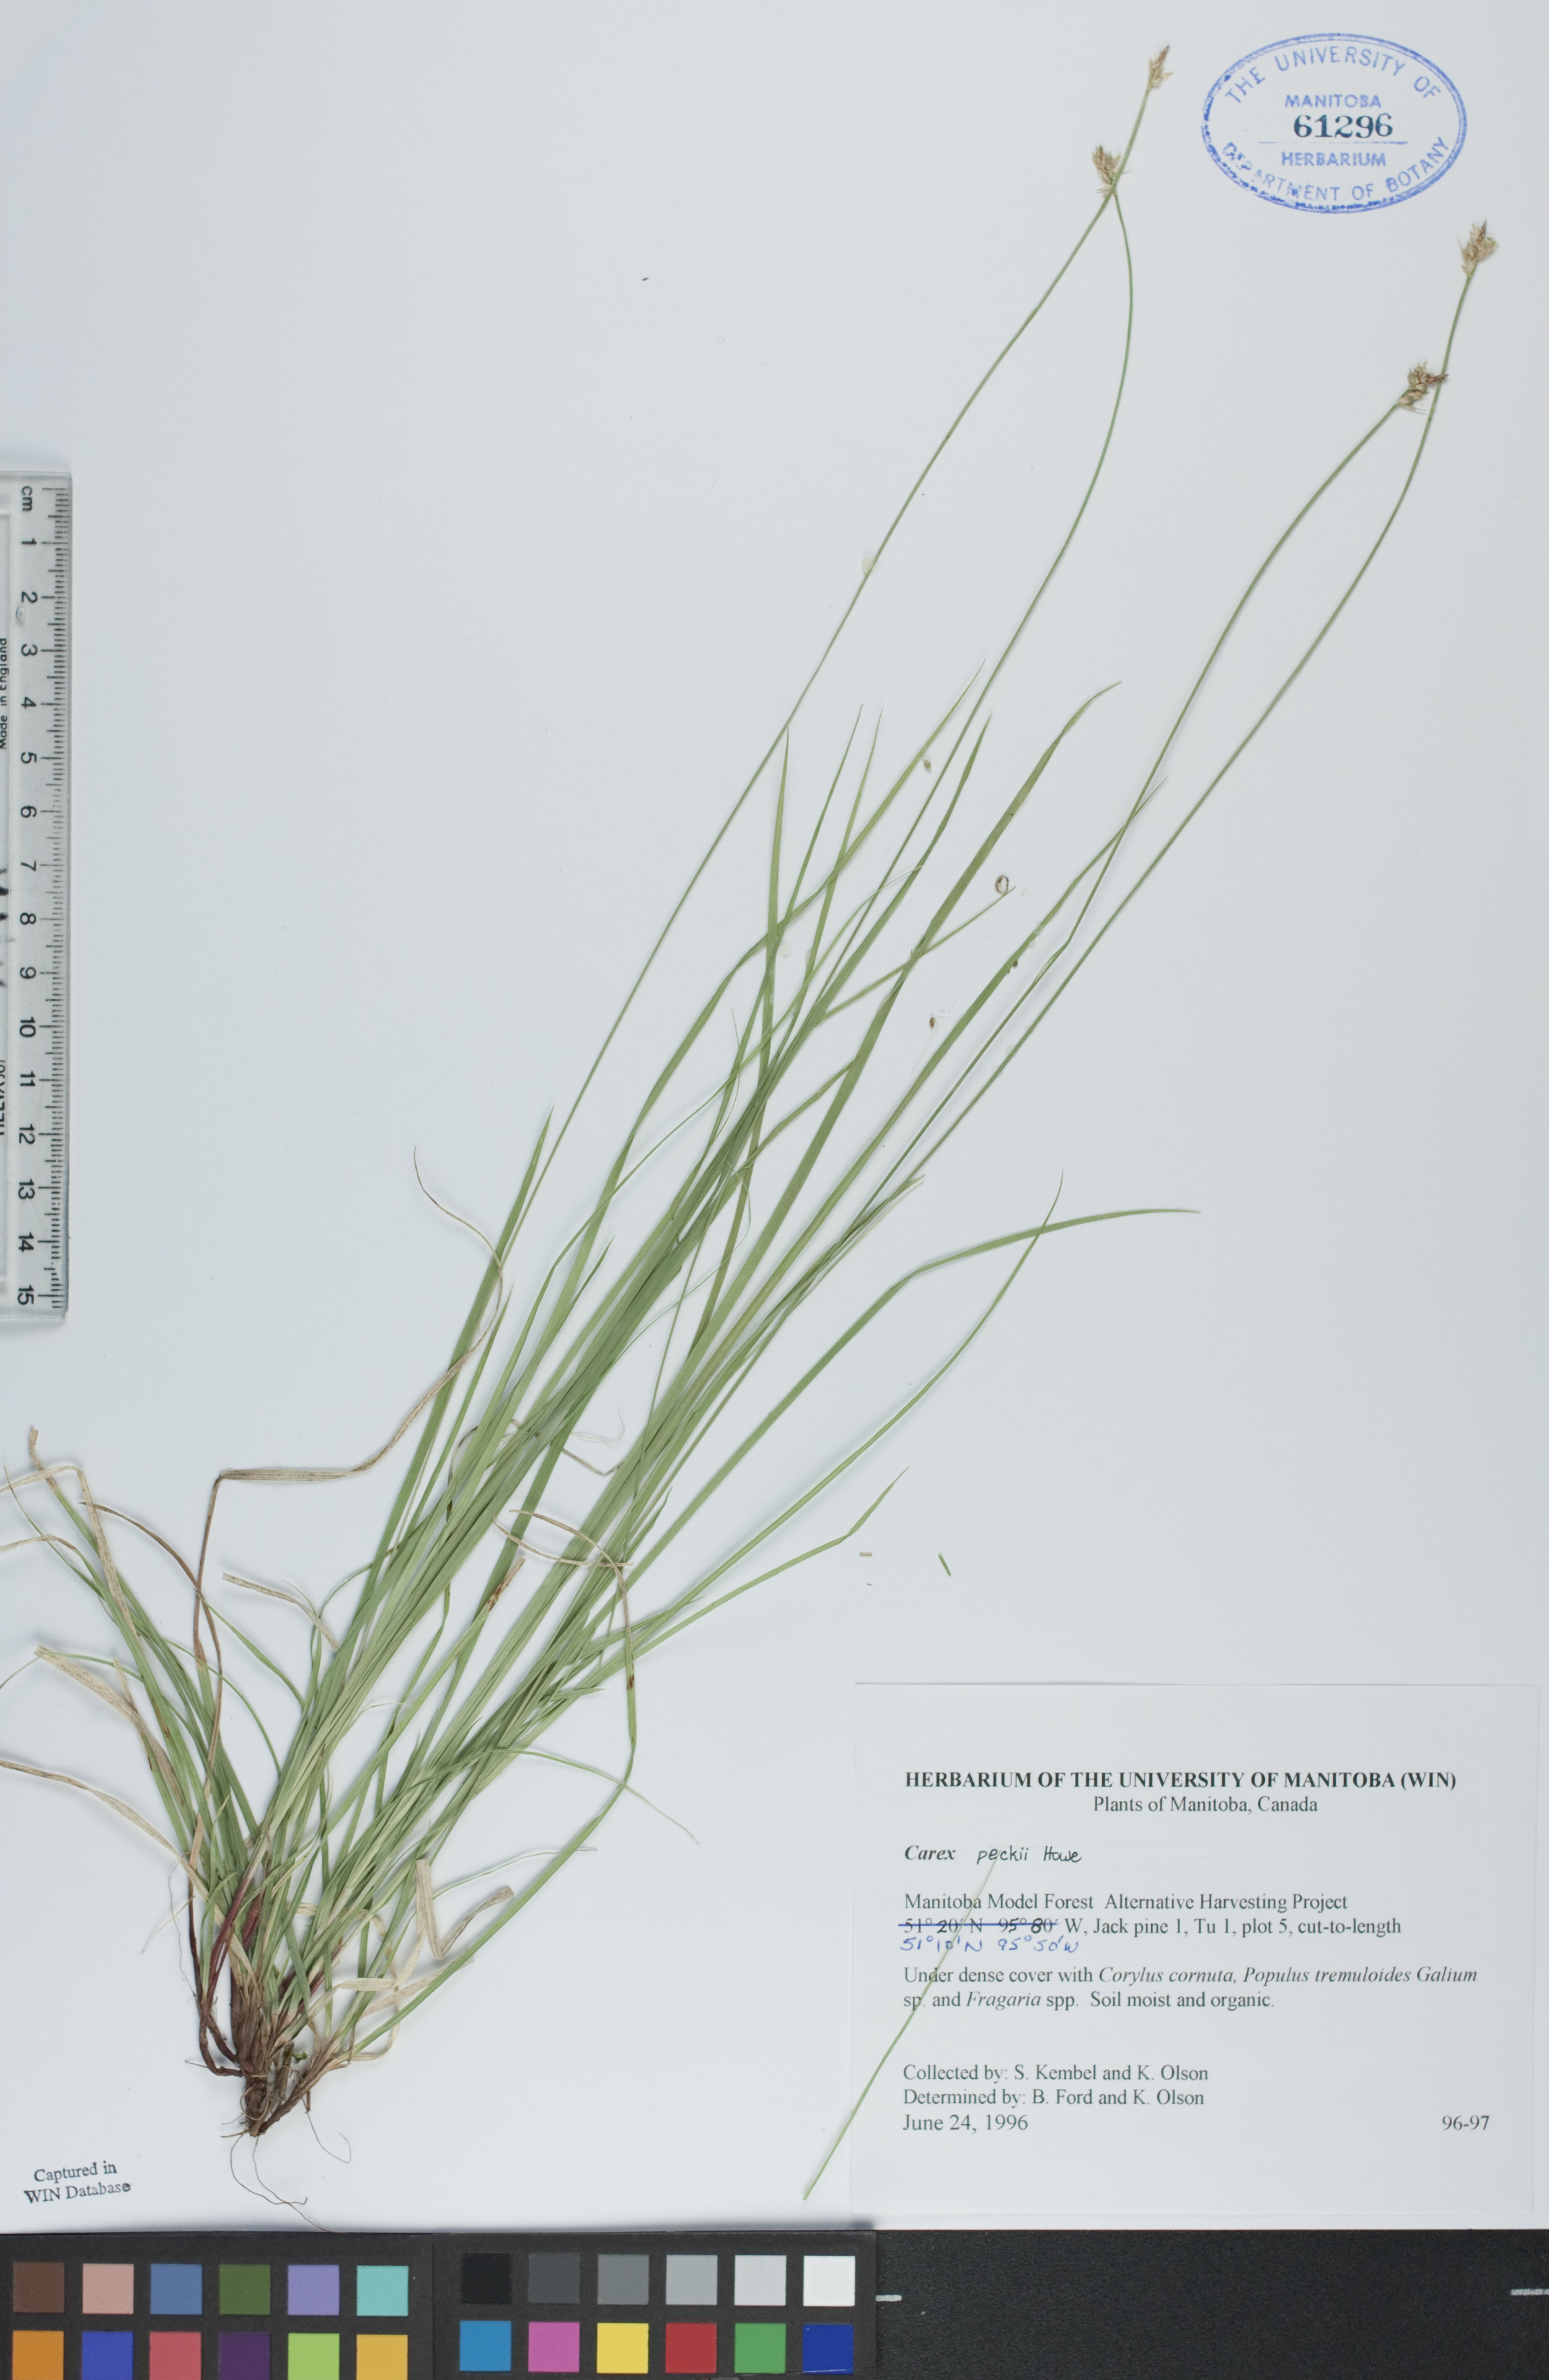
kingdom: Plantae
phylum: Tracheophyta
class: Liliopsida
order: Poales
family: Cyperaceae
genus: Carex
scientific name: Carex peckii
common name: Peck's oak sedge
